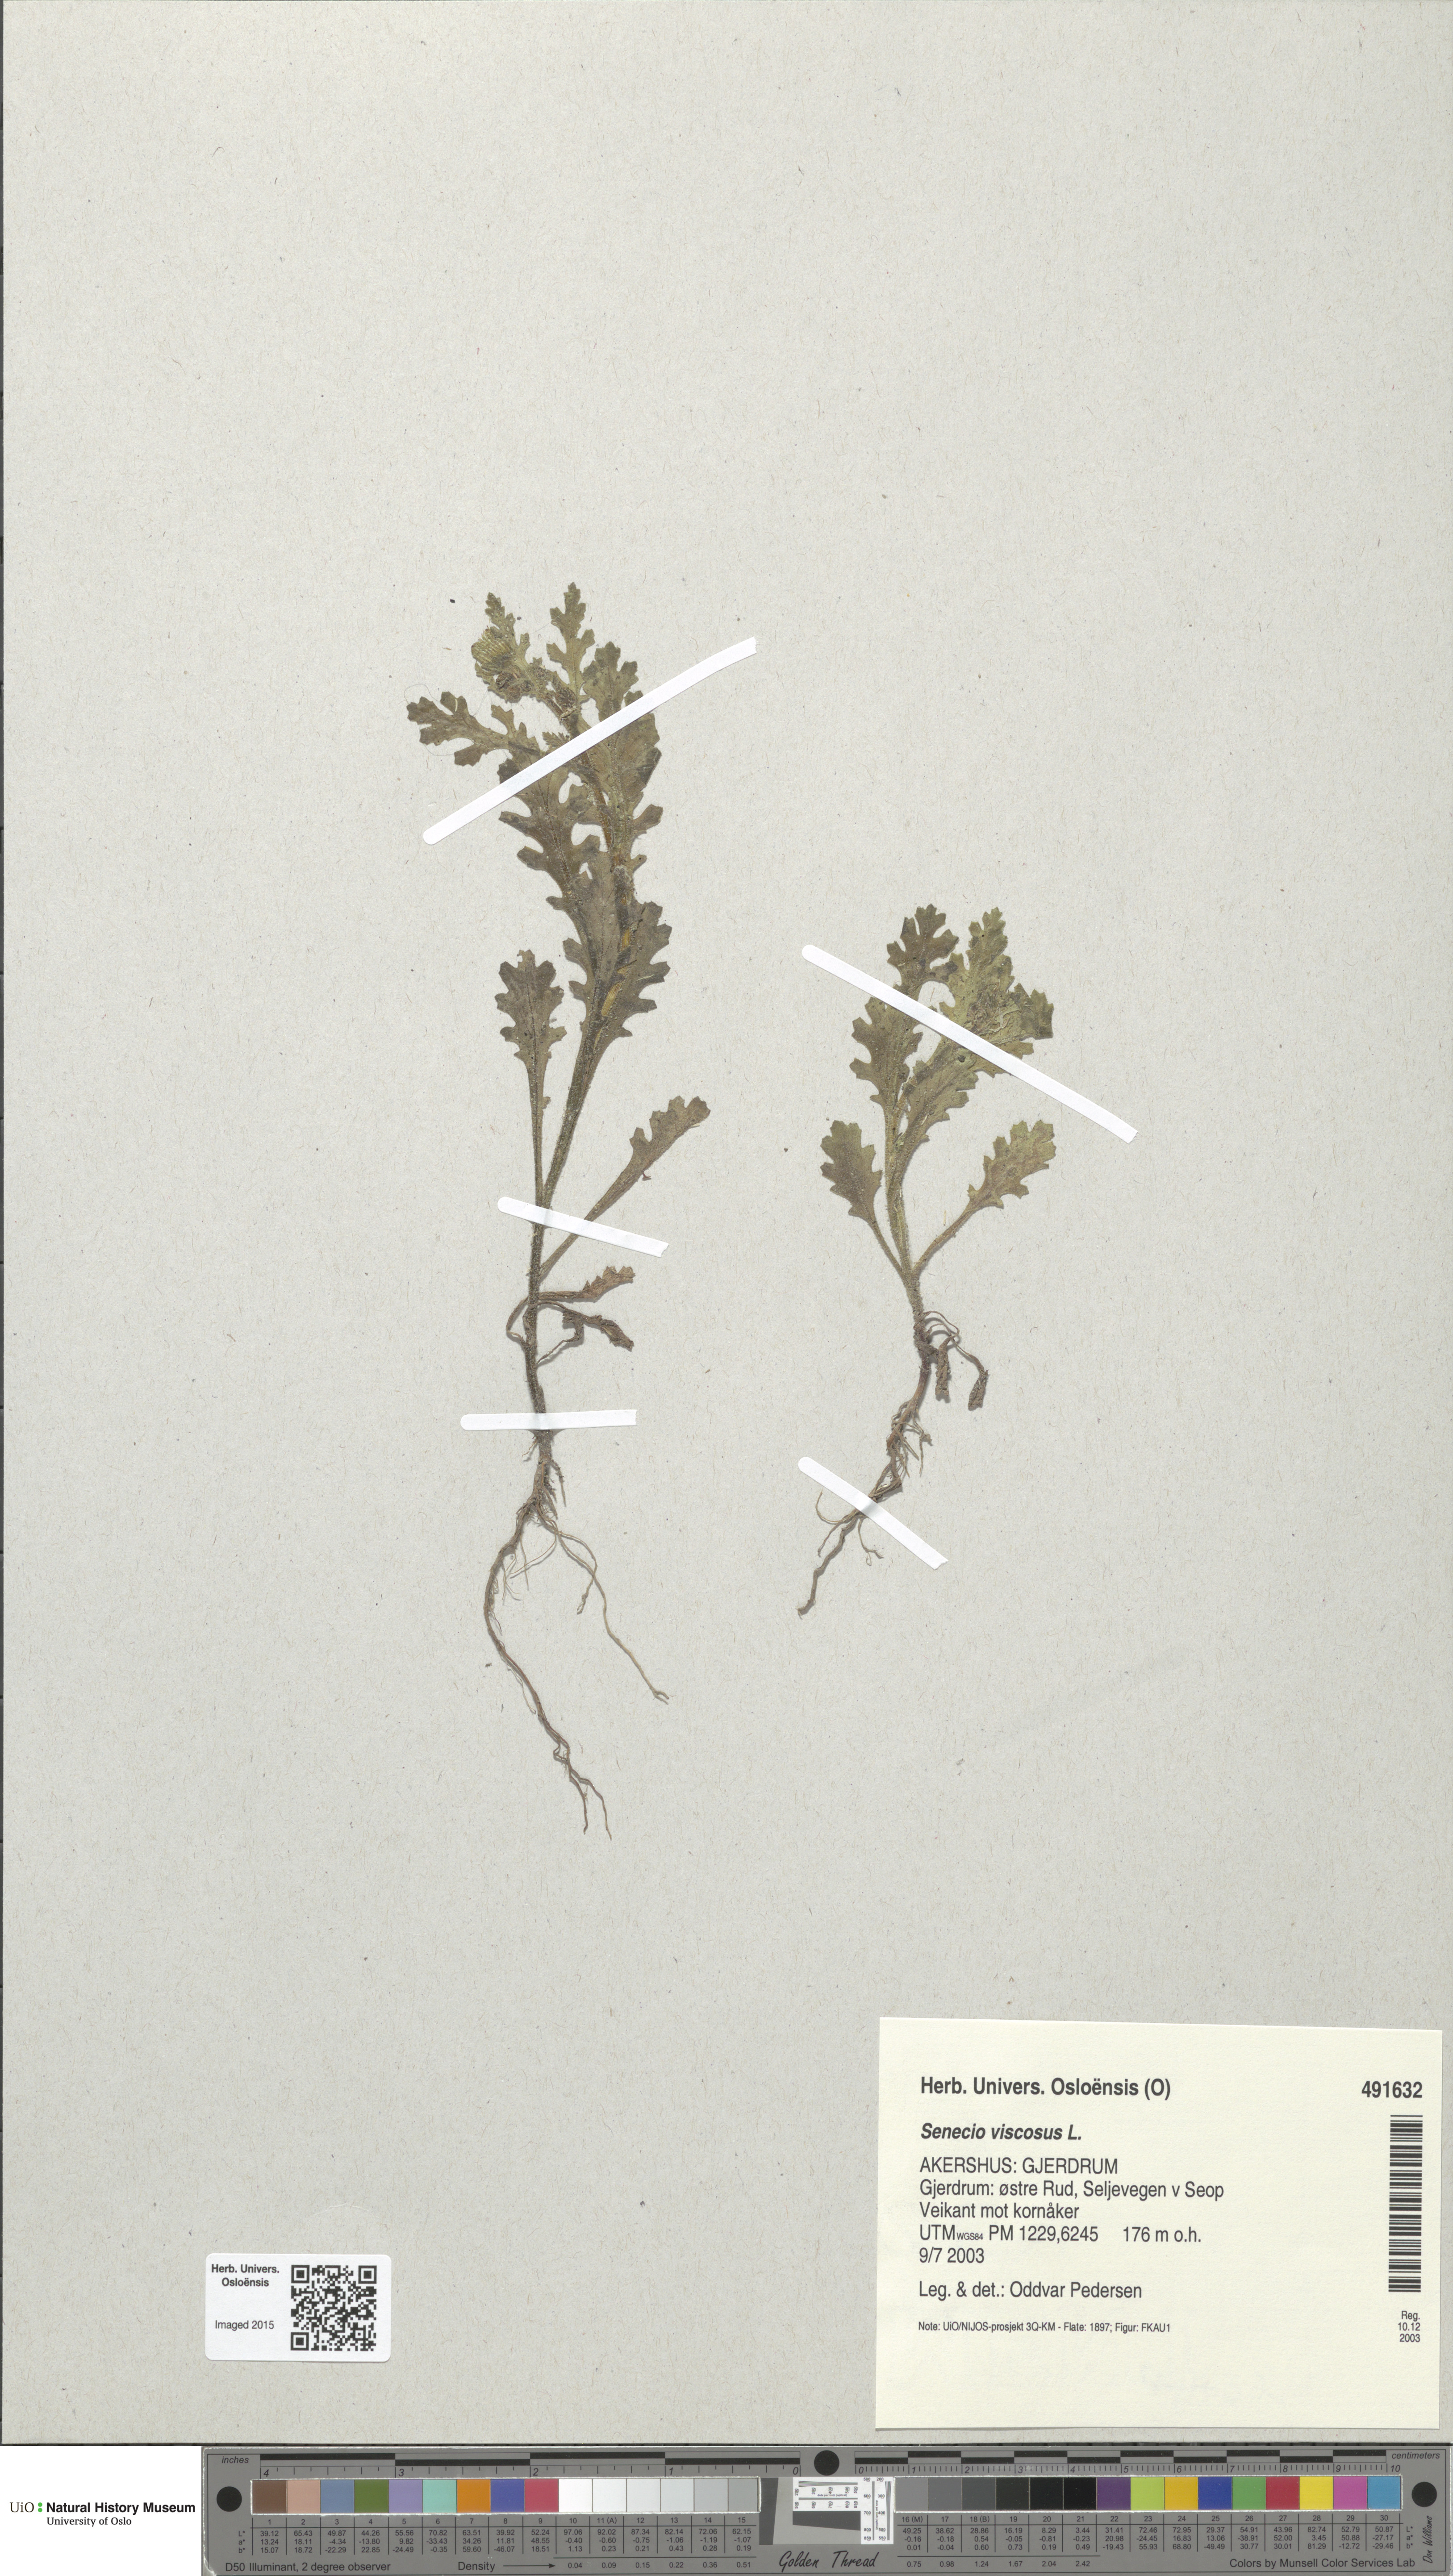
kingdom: Plantae
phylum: Tracheophyta
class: Magnoliopsida
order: Asterales
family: Asteraceae
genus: Senecio
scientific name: Senecio viscosus
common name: Sticky groundsel
